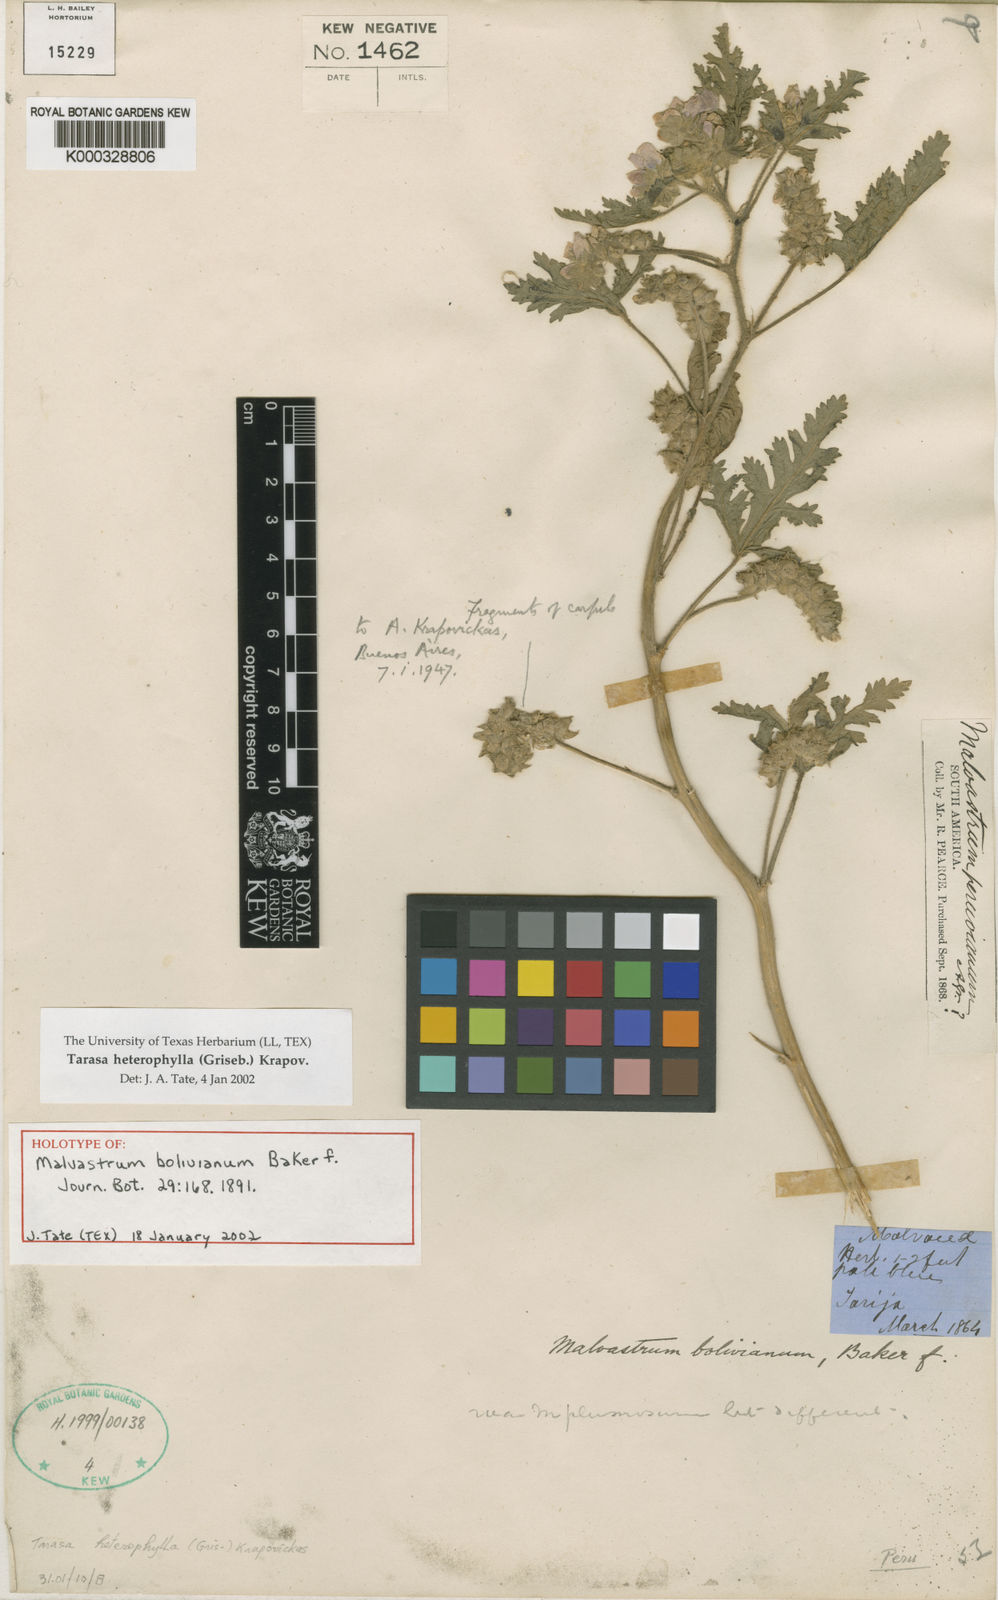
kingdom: Plantae
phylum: Tracheophyta
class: Magnoliopsida
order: Malvales
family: Malvaceae
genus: Tarasa
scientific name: Tarasa heterophylla
